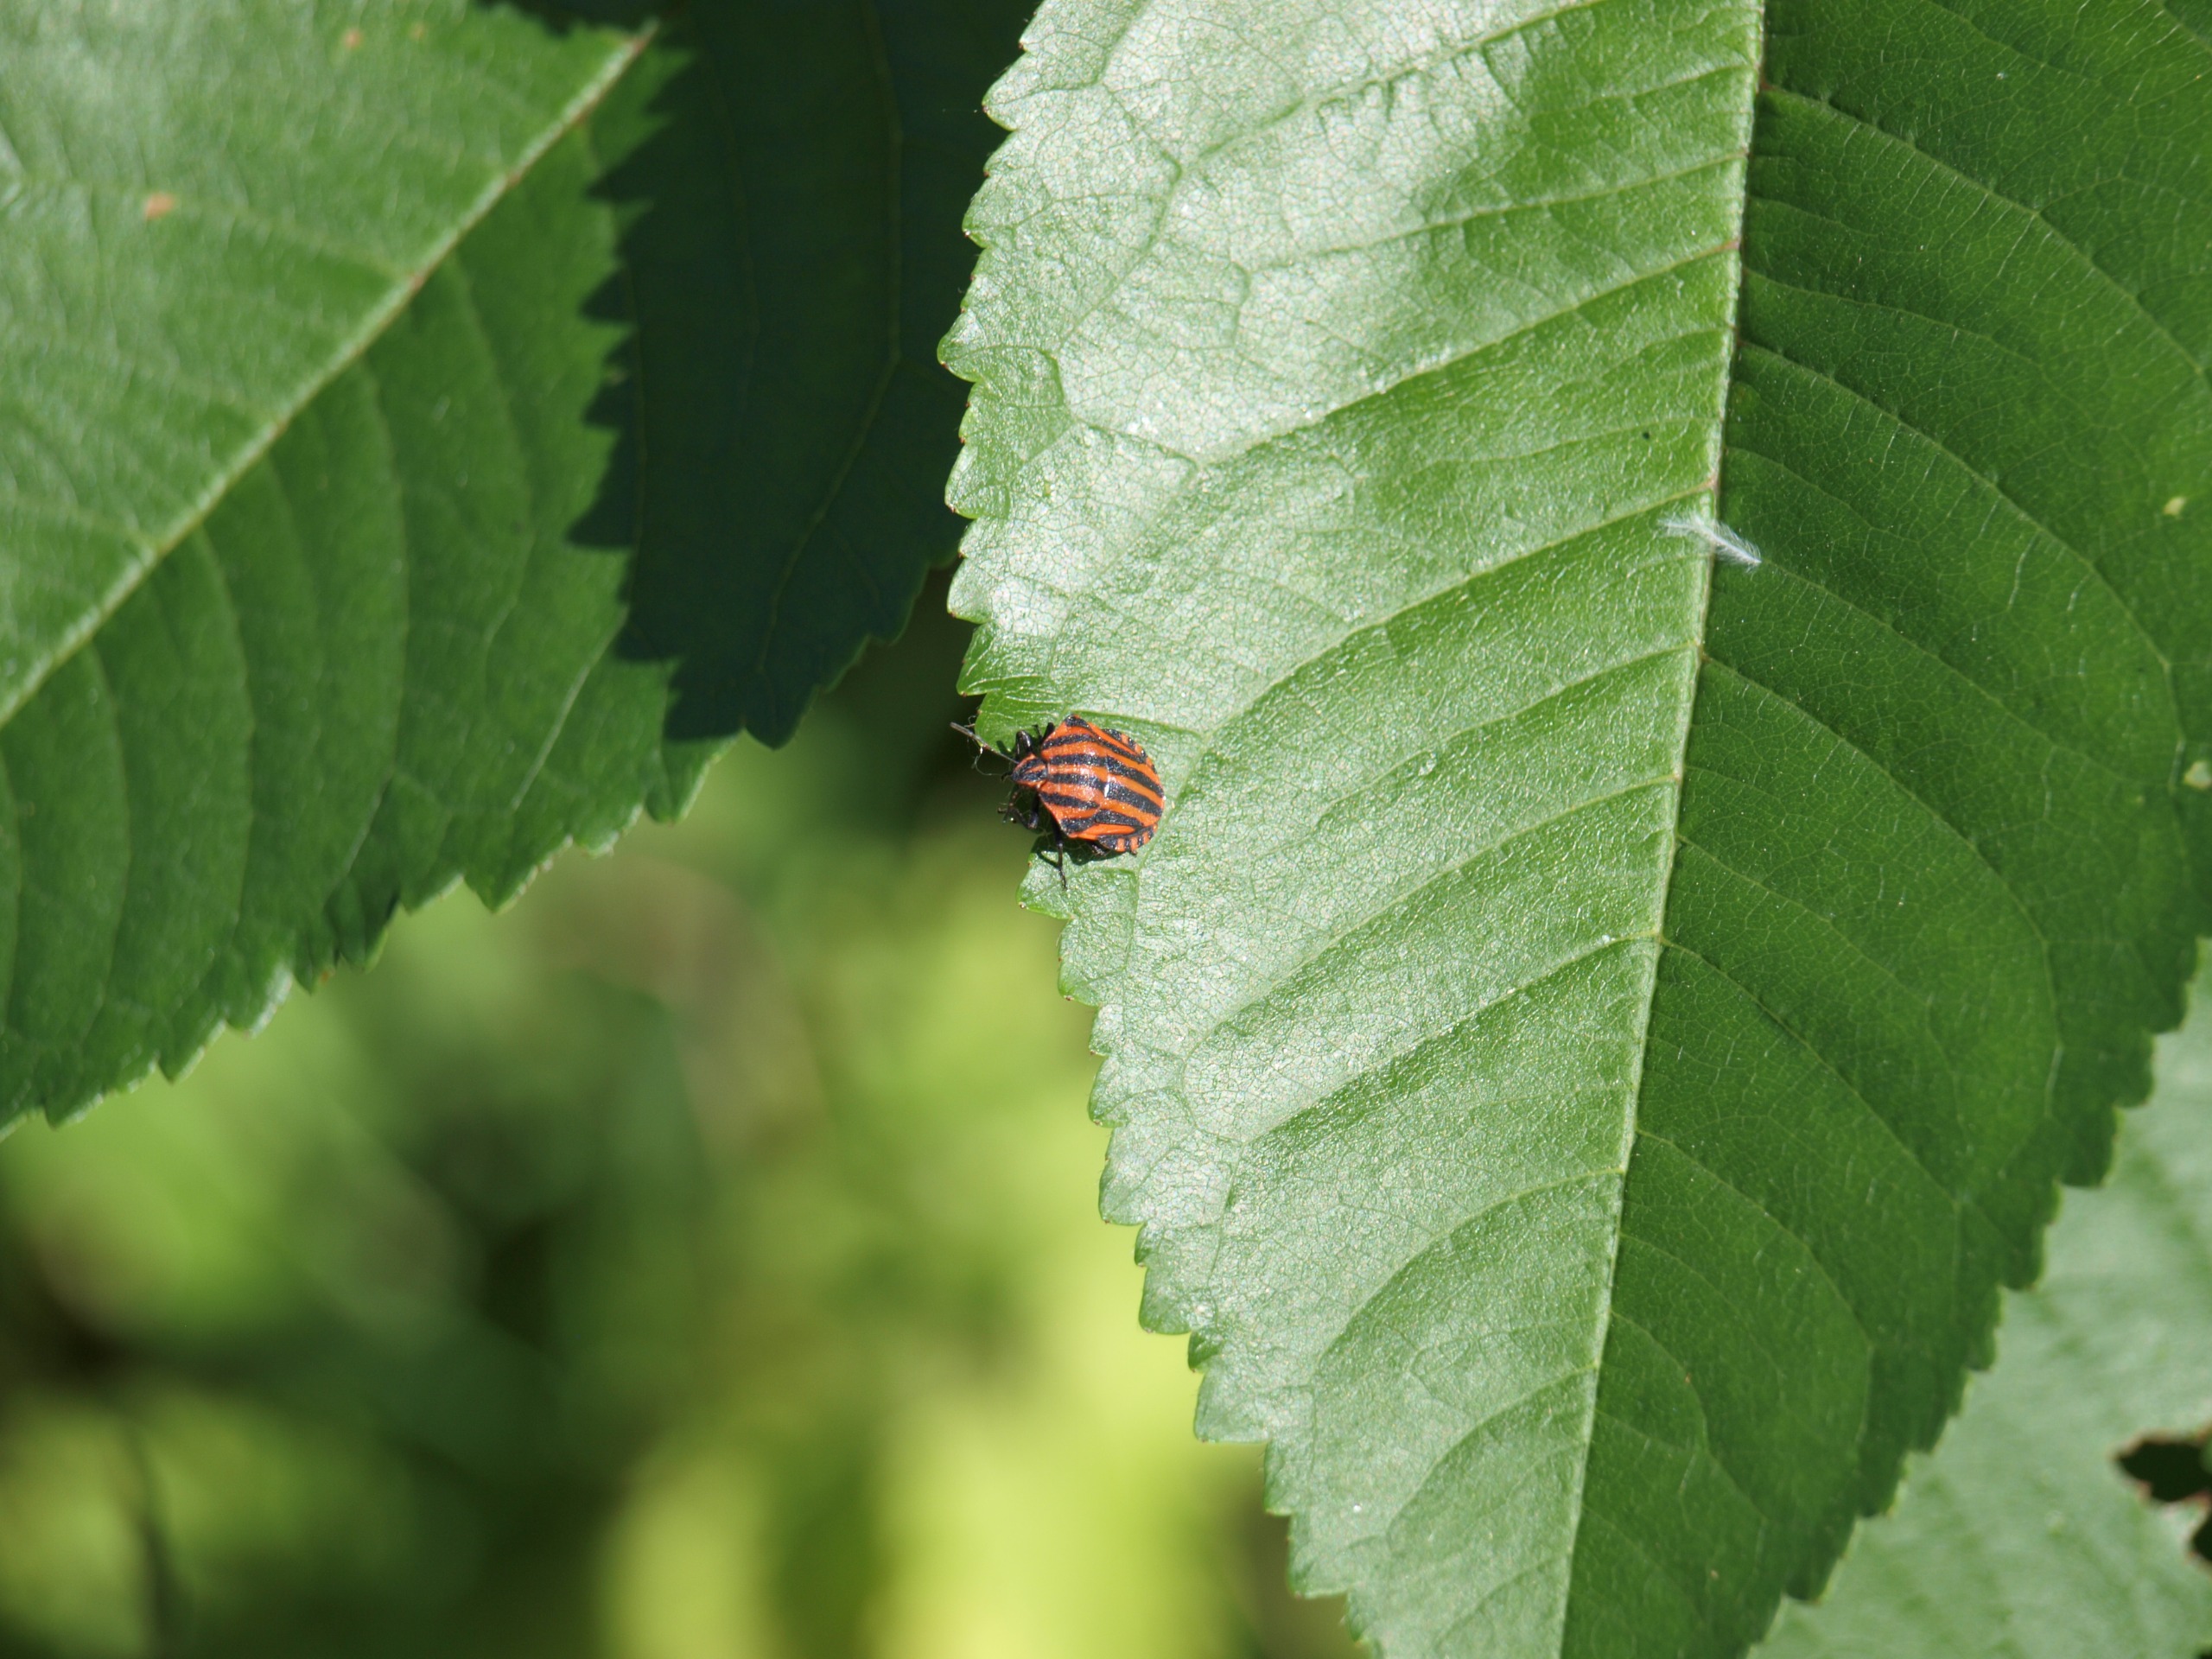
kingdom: Animalia
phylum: Arthropoda
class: Insecta
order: Hemiptera
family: Pentatomidae
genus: Graphosoma
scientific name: Graphosoma italicum
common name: Stribetæge
